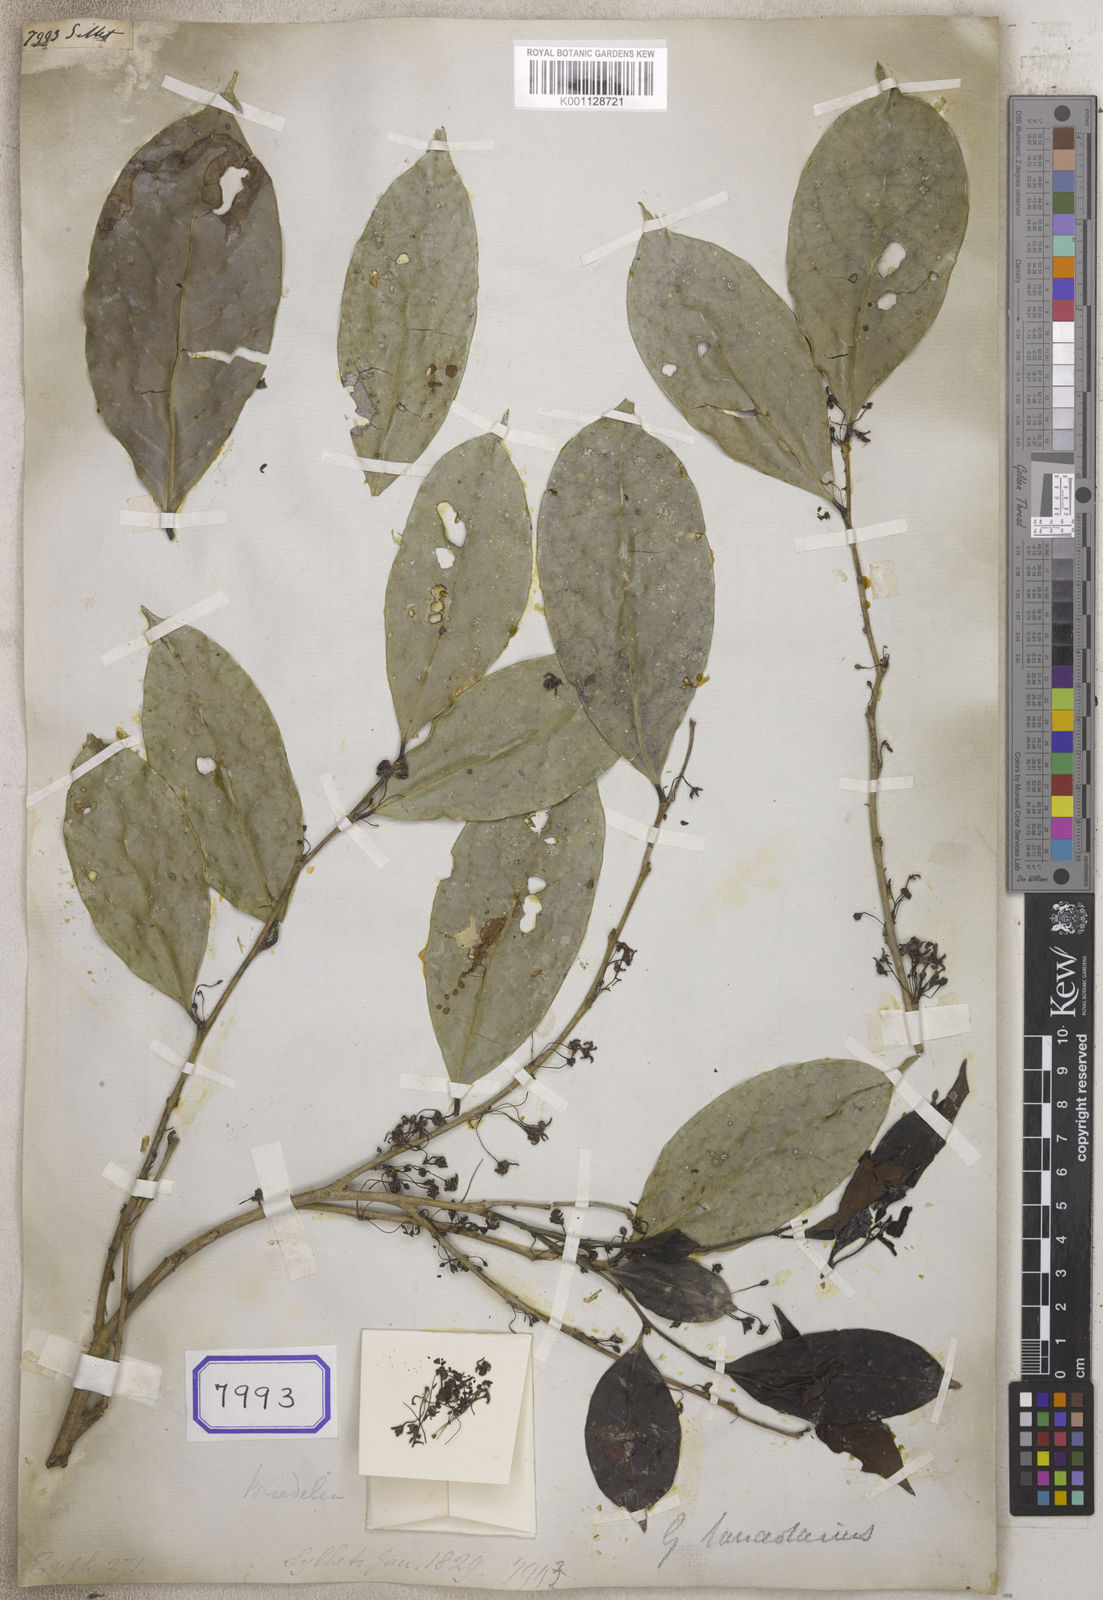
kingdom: Plantae
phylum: Tracheophyta
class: Magnoliopsida
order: Malpighiales
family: Euphorbiaceae
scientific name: Euphorbiaceae
